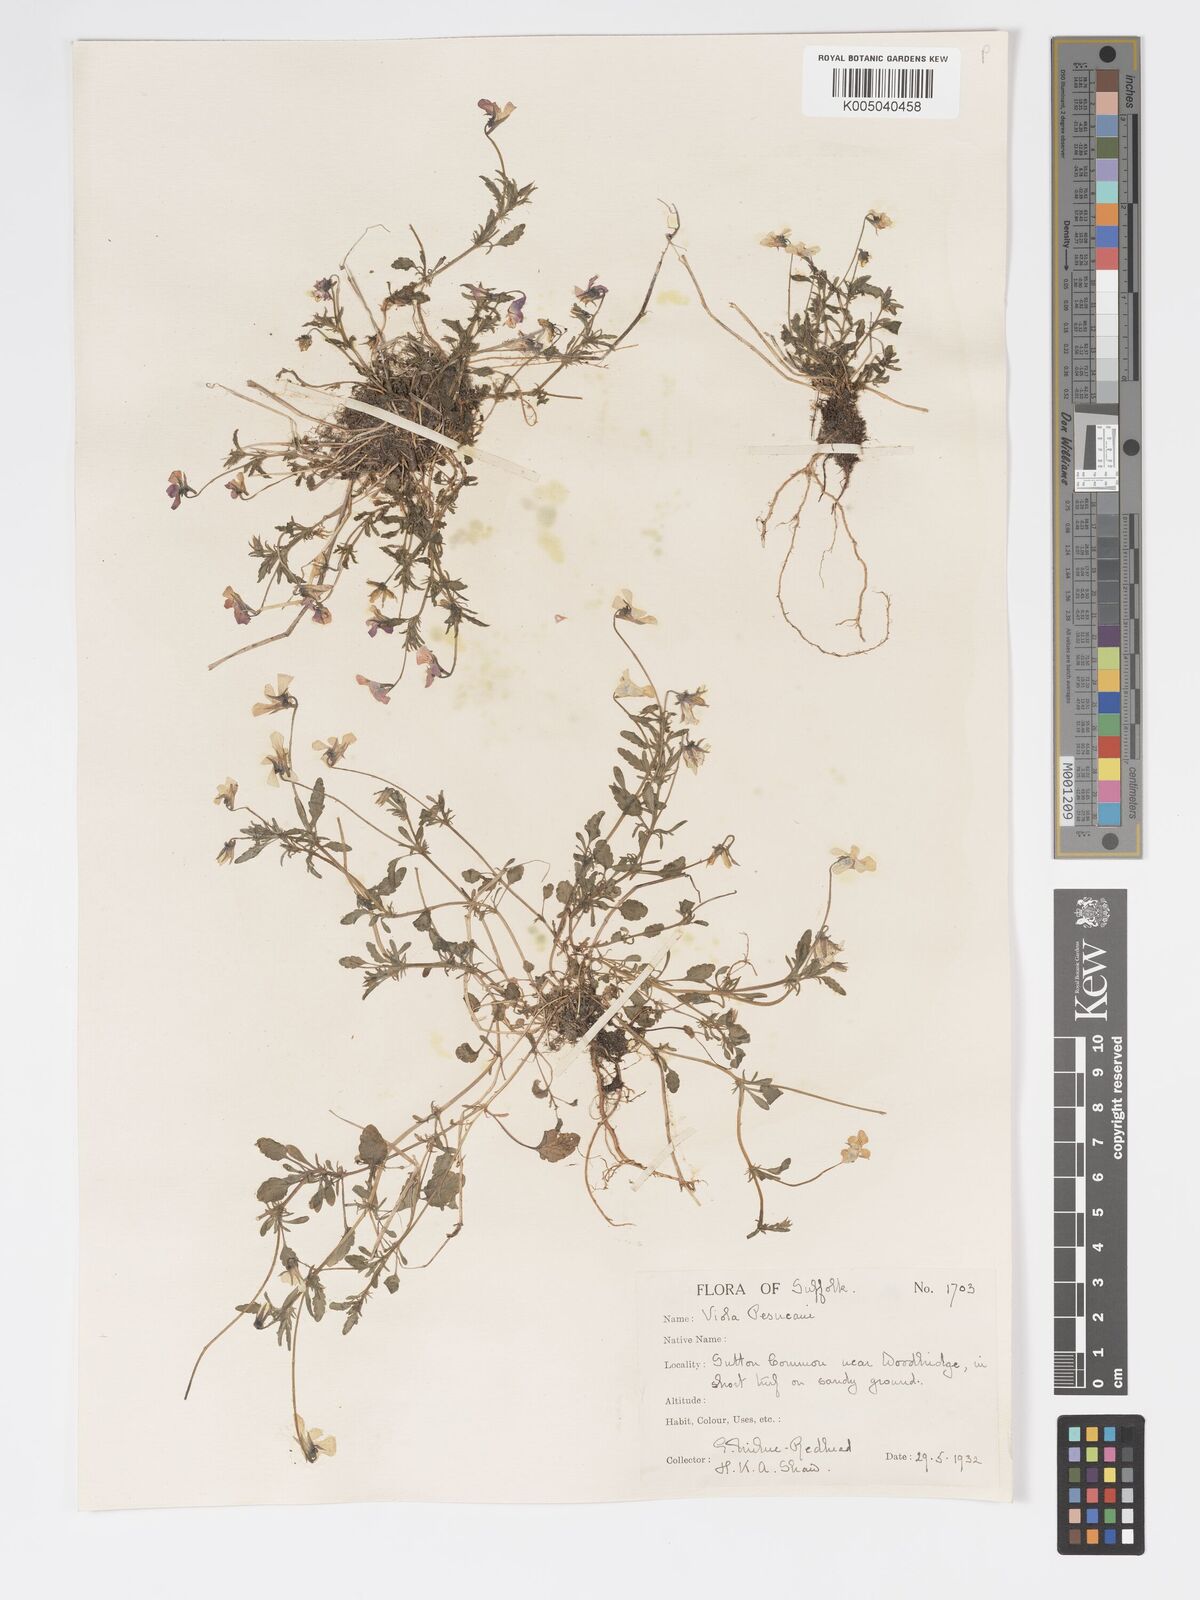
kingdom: Plantae
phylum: Tracheophyta
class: Magnoliopsida
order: Malpighiales
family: Violaceae
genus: Viola
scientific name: Viola arvensis
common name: Field pansy
